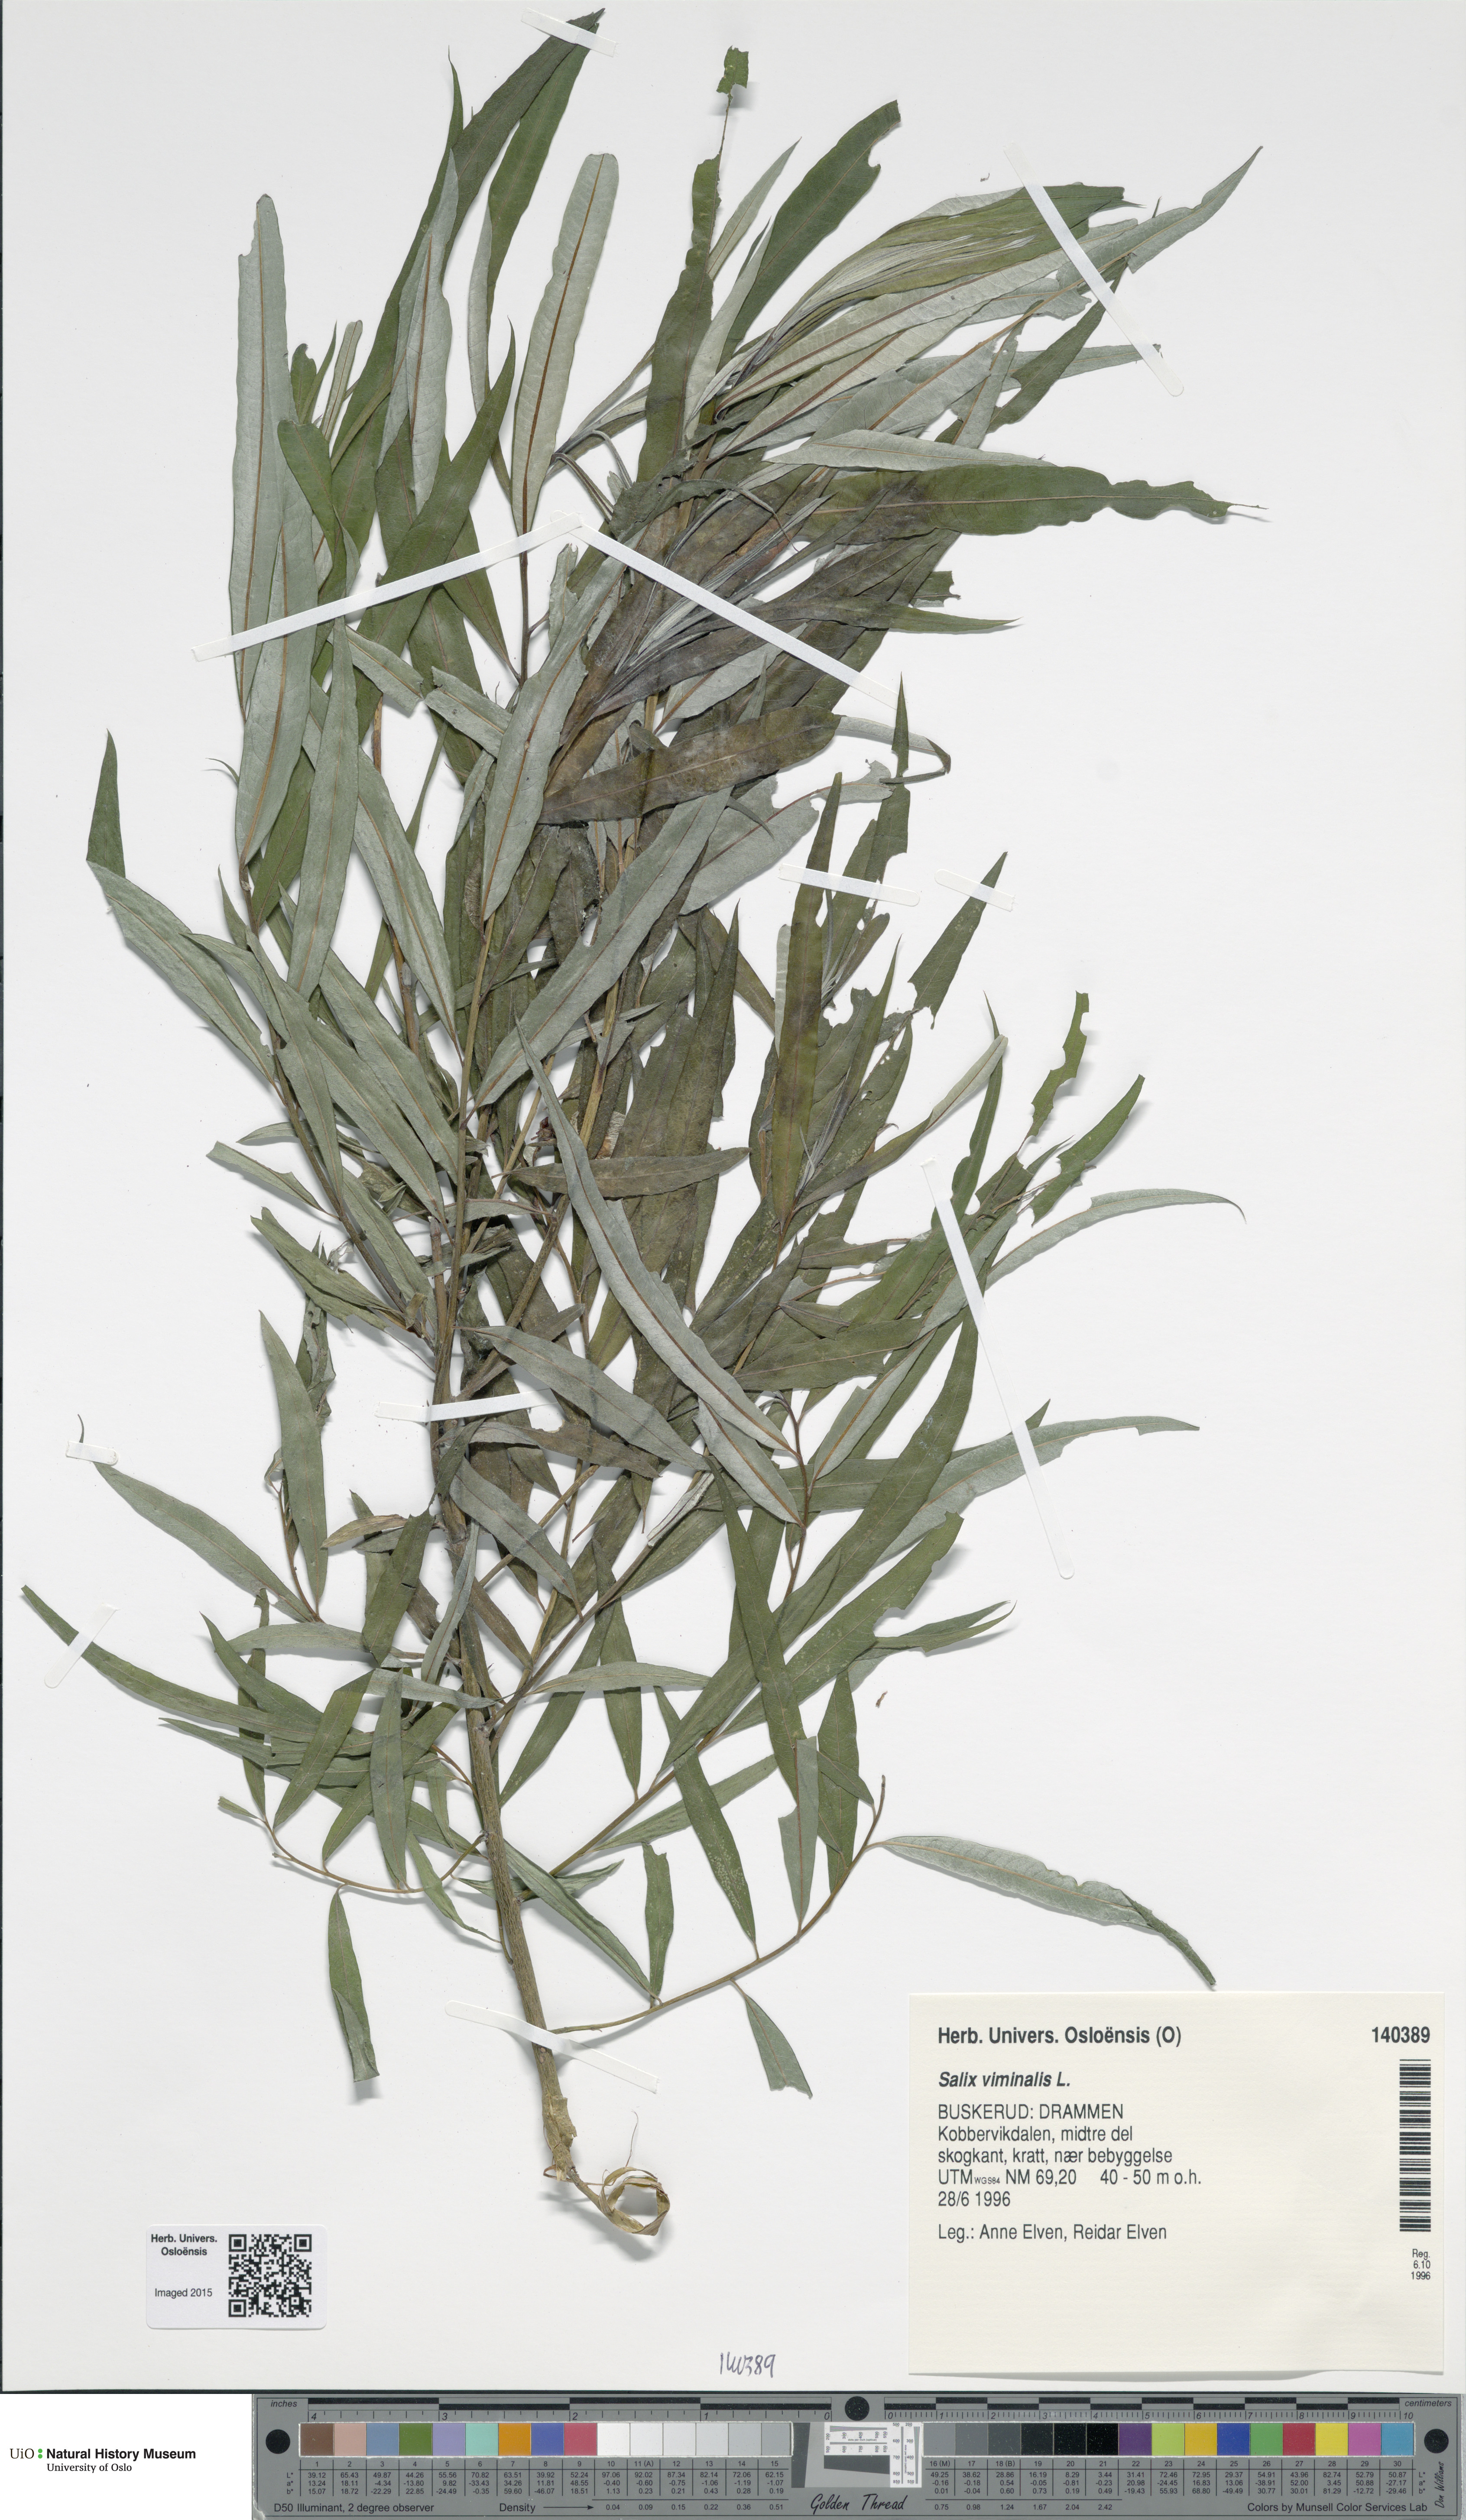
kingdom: Plantae
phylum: Tracheophyta
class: Magnoliopsida
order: Malpighiales
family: Salicaceae
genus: Salix
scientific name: Salix viminalis
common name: Osier
